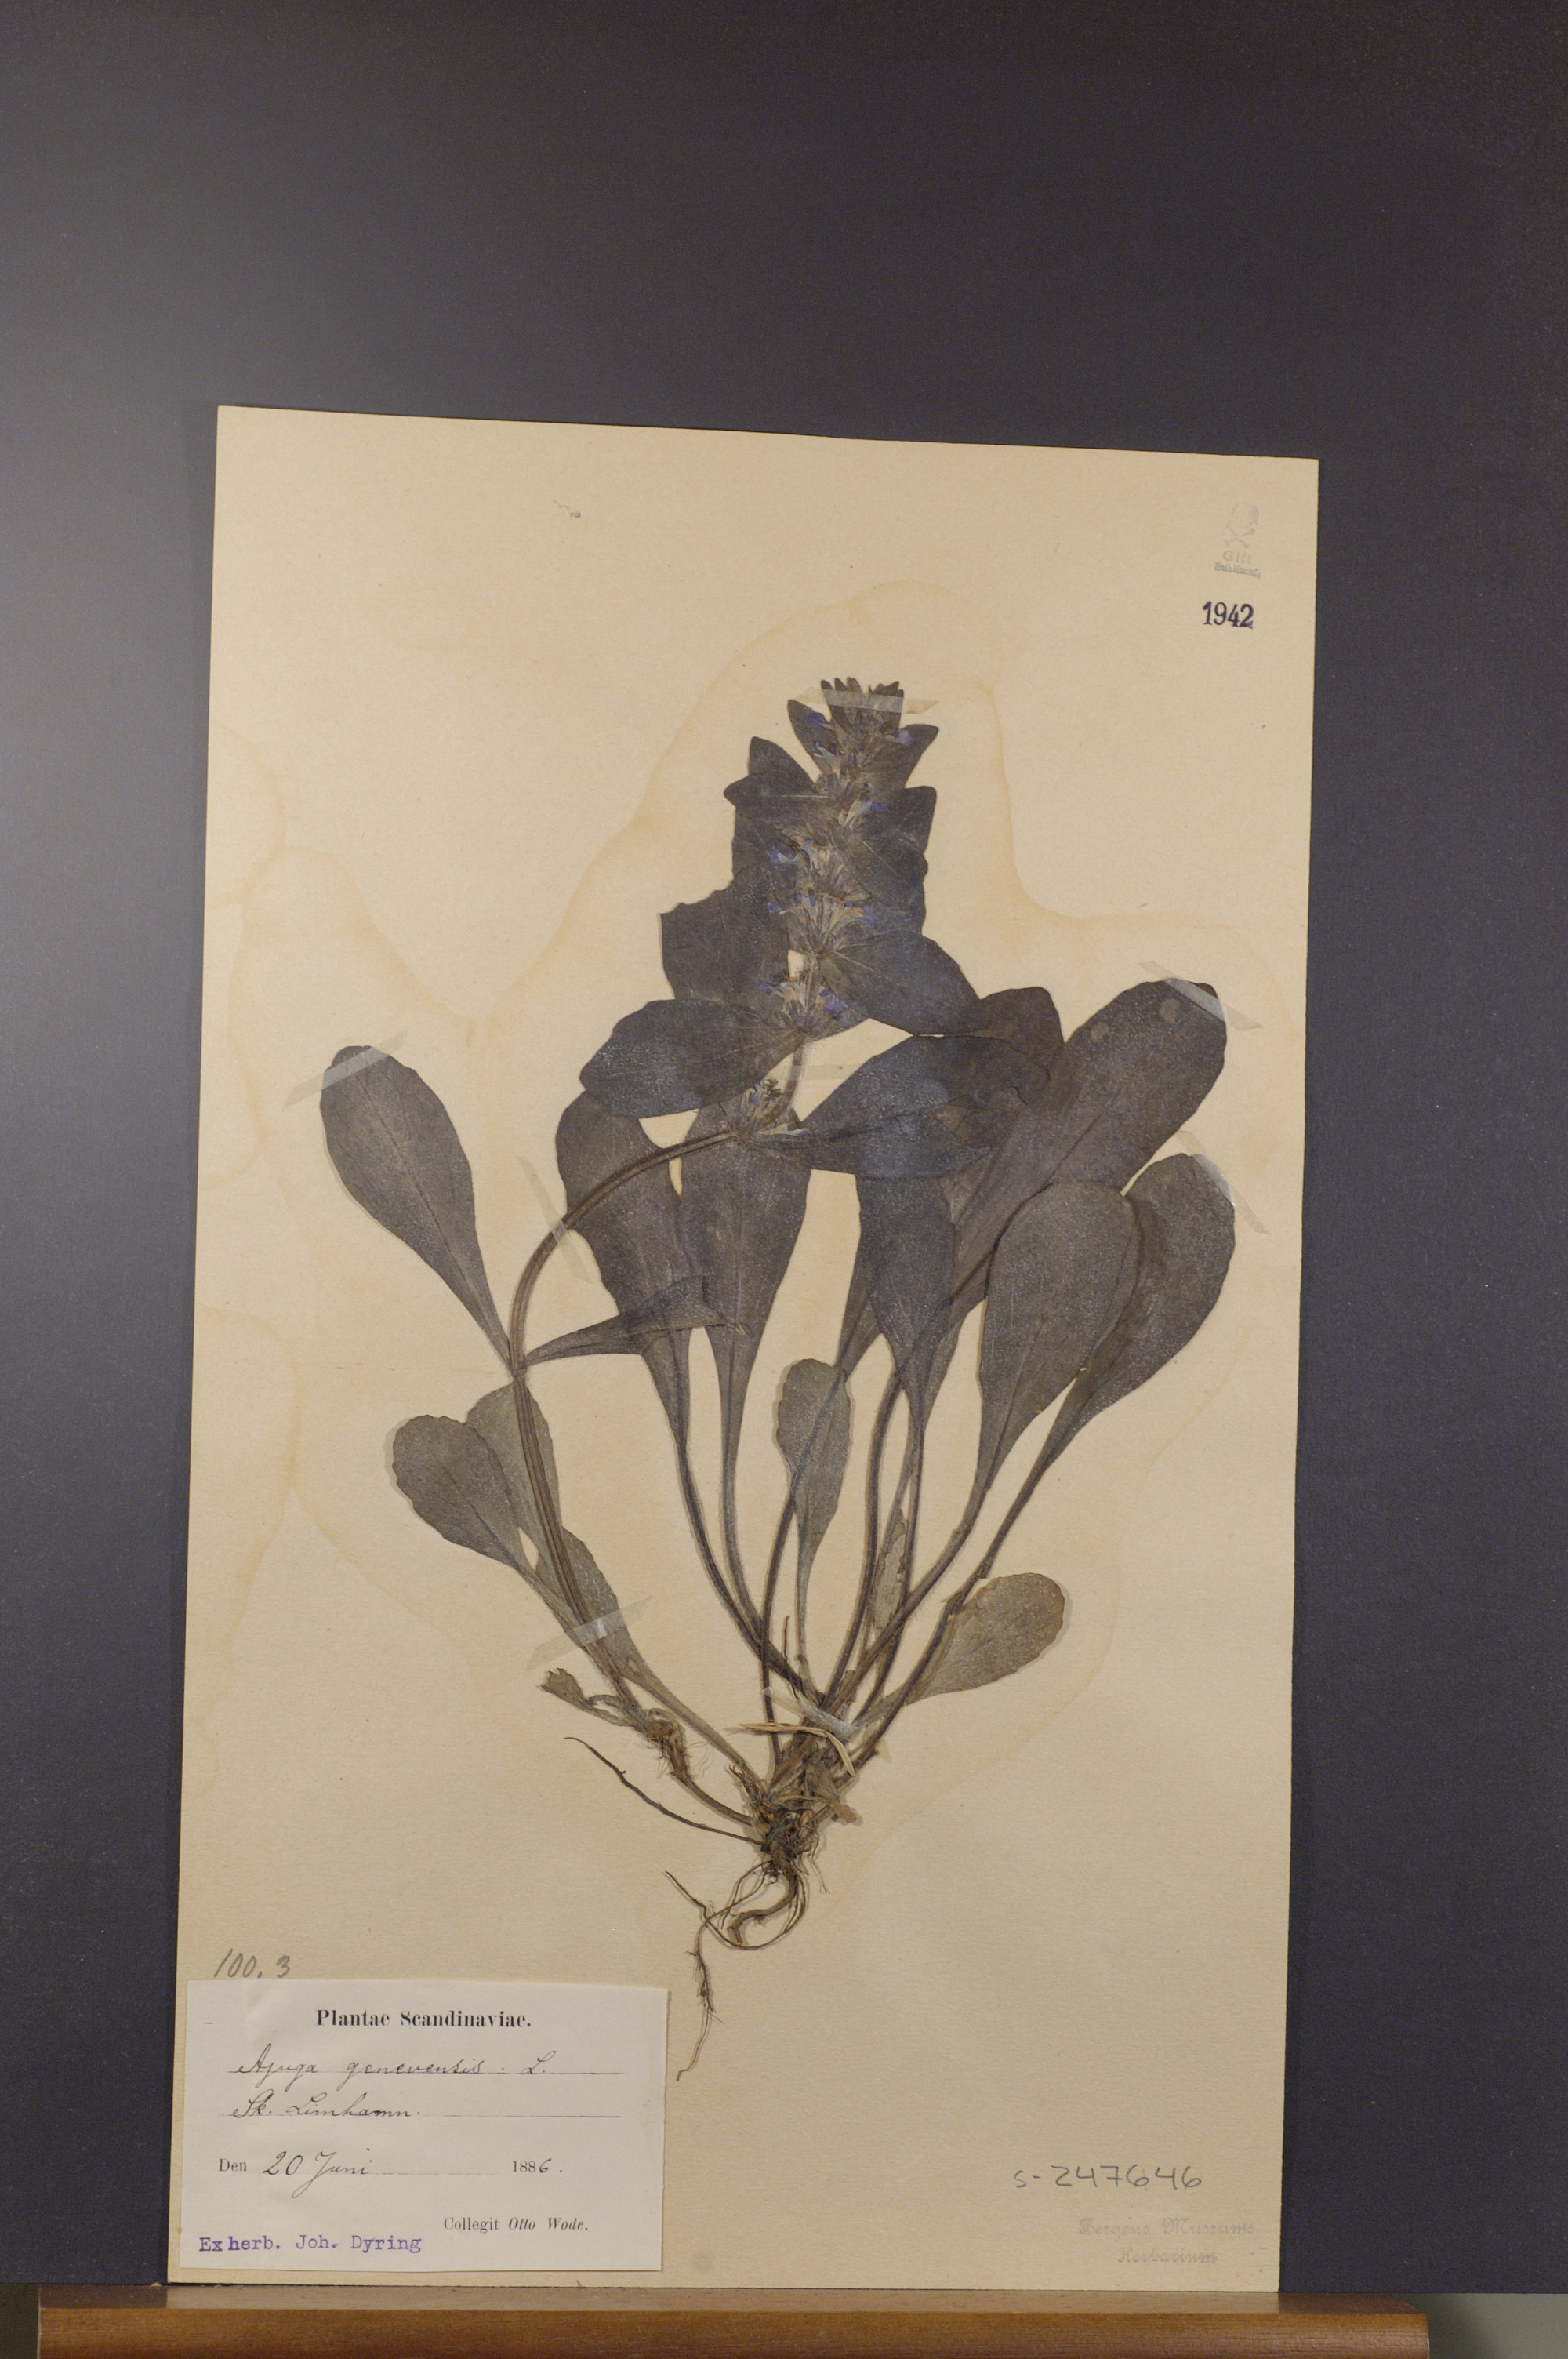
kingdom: Plantae
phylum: Tracheophyta
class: Magnoliopsida
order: Lamiales
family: Lamiaceae
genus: Ajuga
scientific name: Ajuga genevensis
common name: Blue bugle
